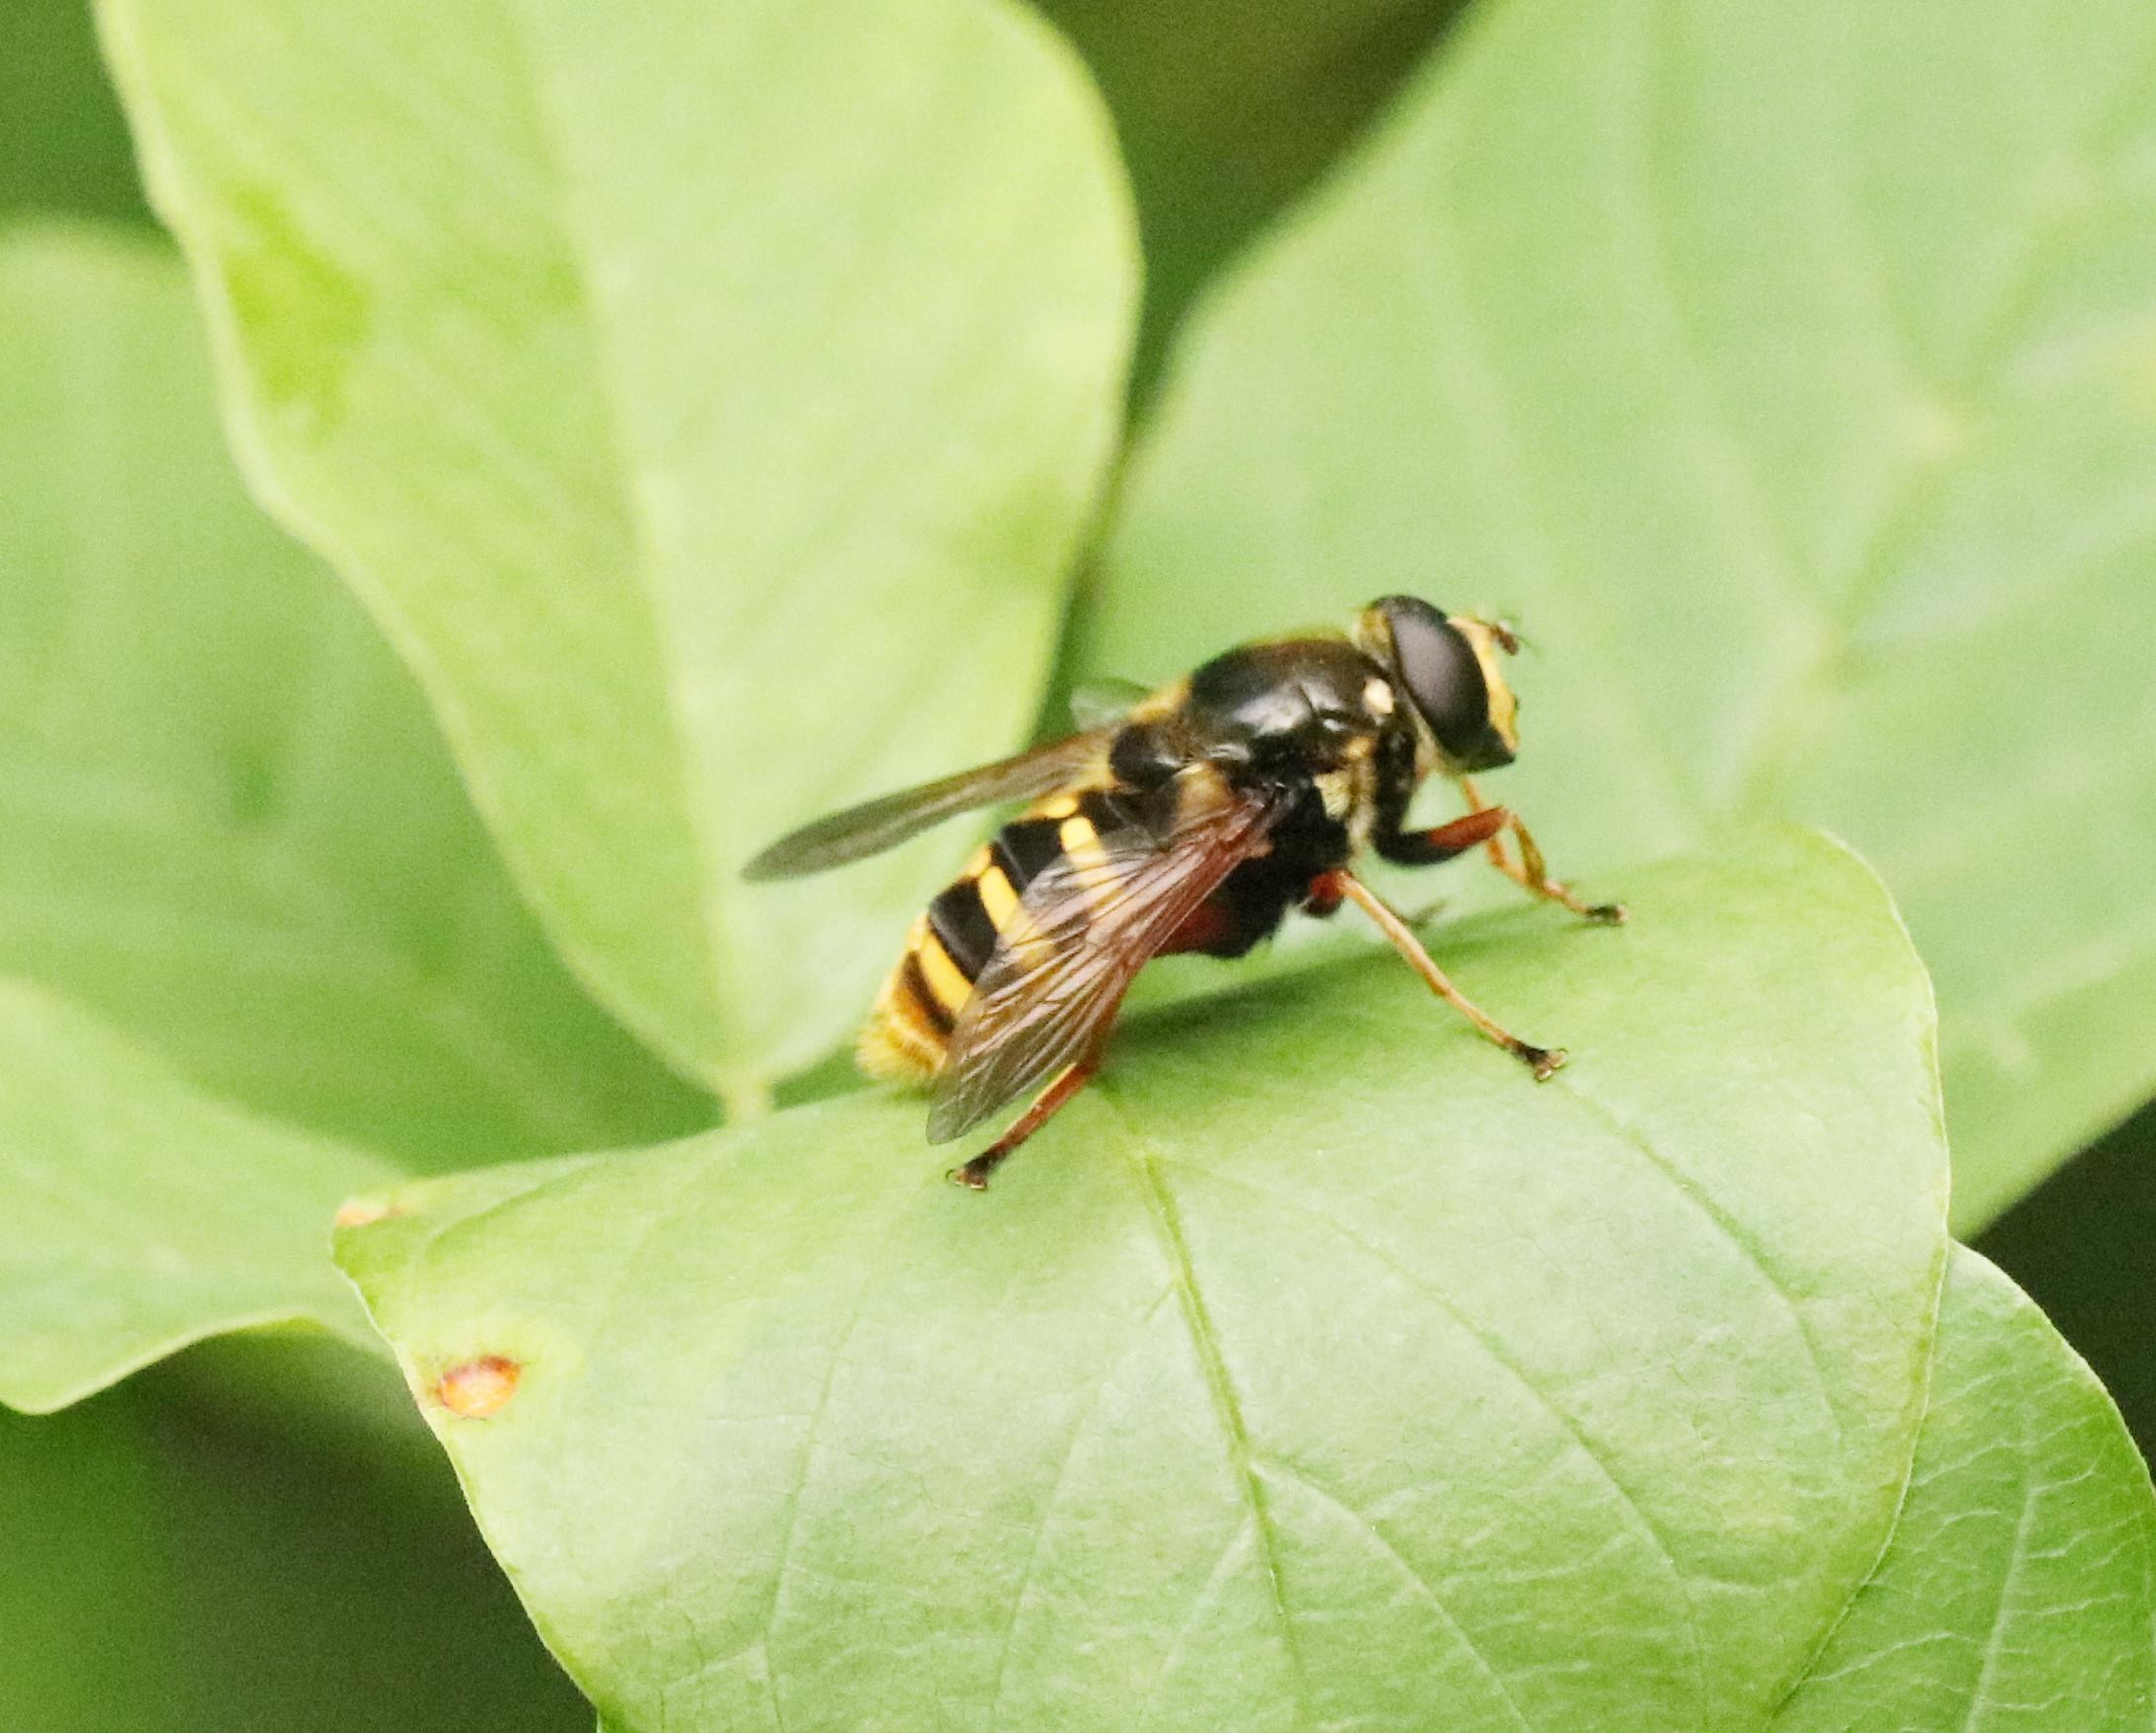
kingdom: Animalia
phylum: Arthropoda
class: Insecta
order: Diptera
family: Syrphidae
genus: Sericomyia
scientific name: Sericomyia silentis
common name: Tørve-silkesvirreflue
